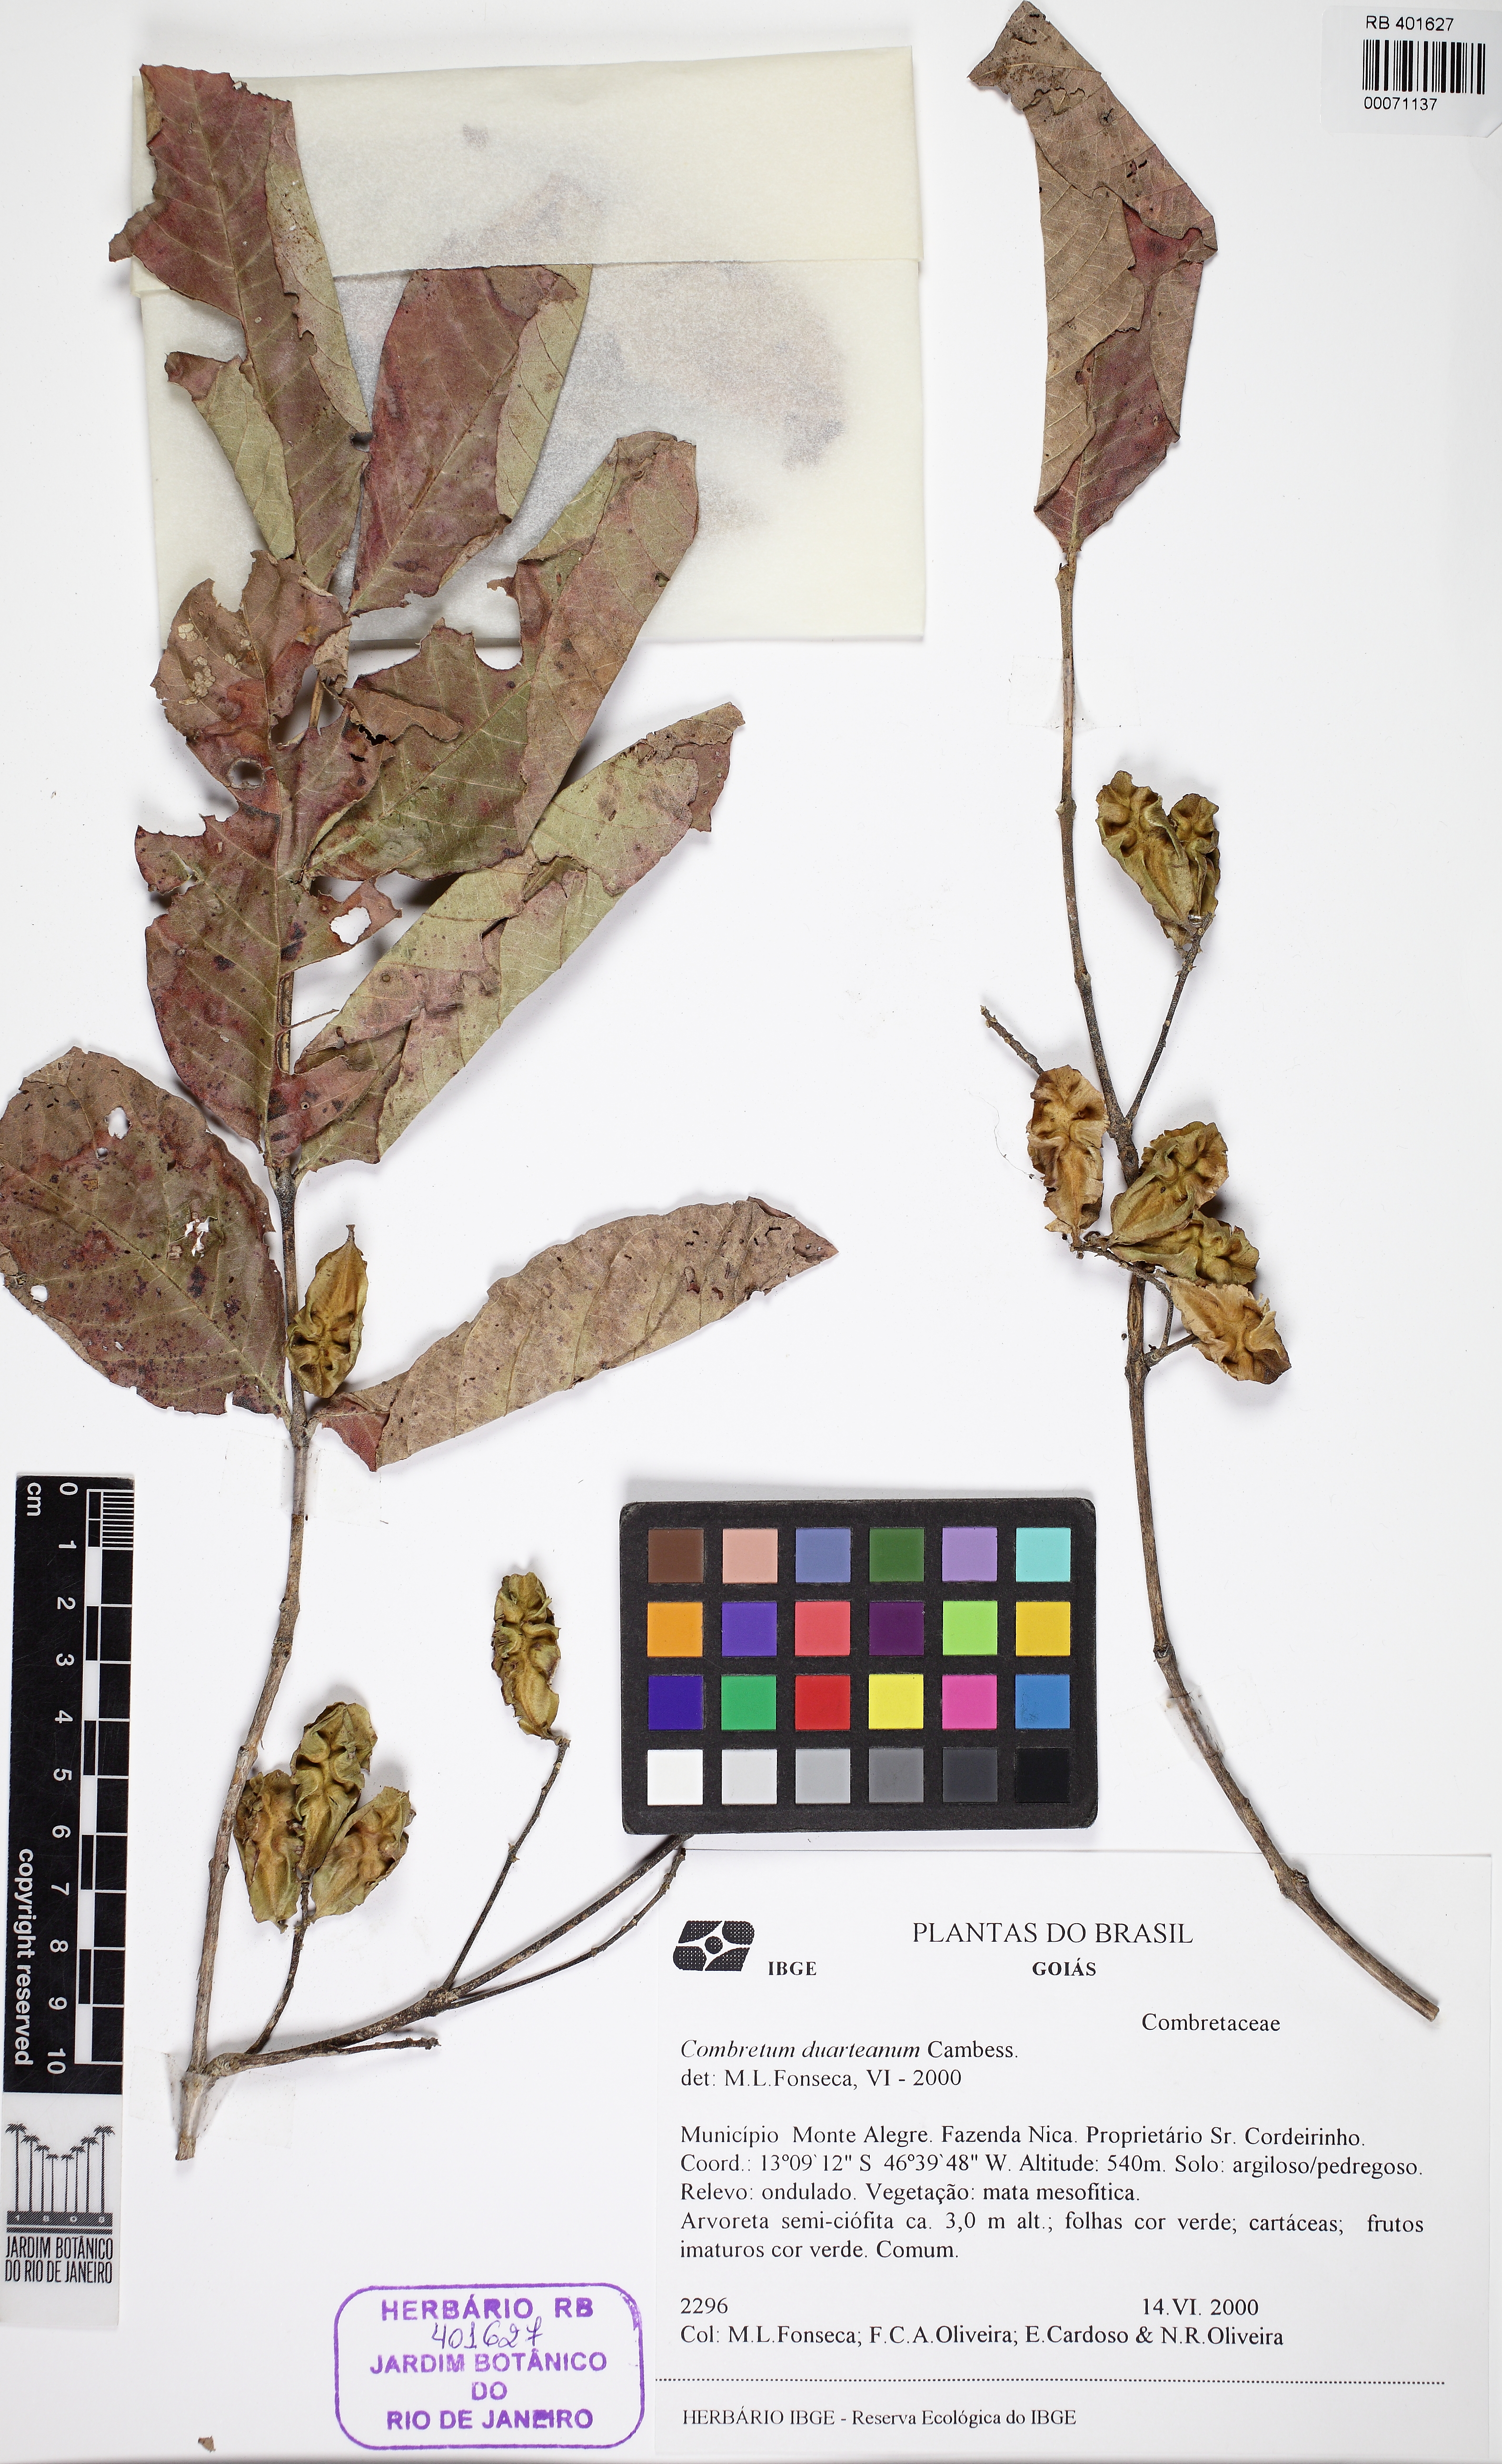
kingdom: Plantae
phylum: Tracheophyta
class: Magnoliopsida
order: Myrtales
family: Combretaceae
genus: Combretum
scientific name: Combretum duarteanum
